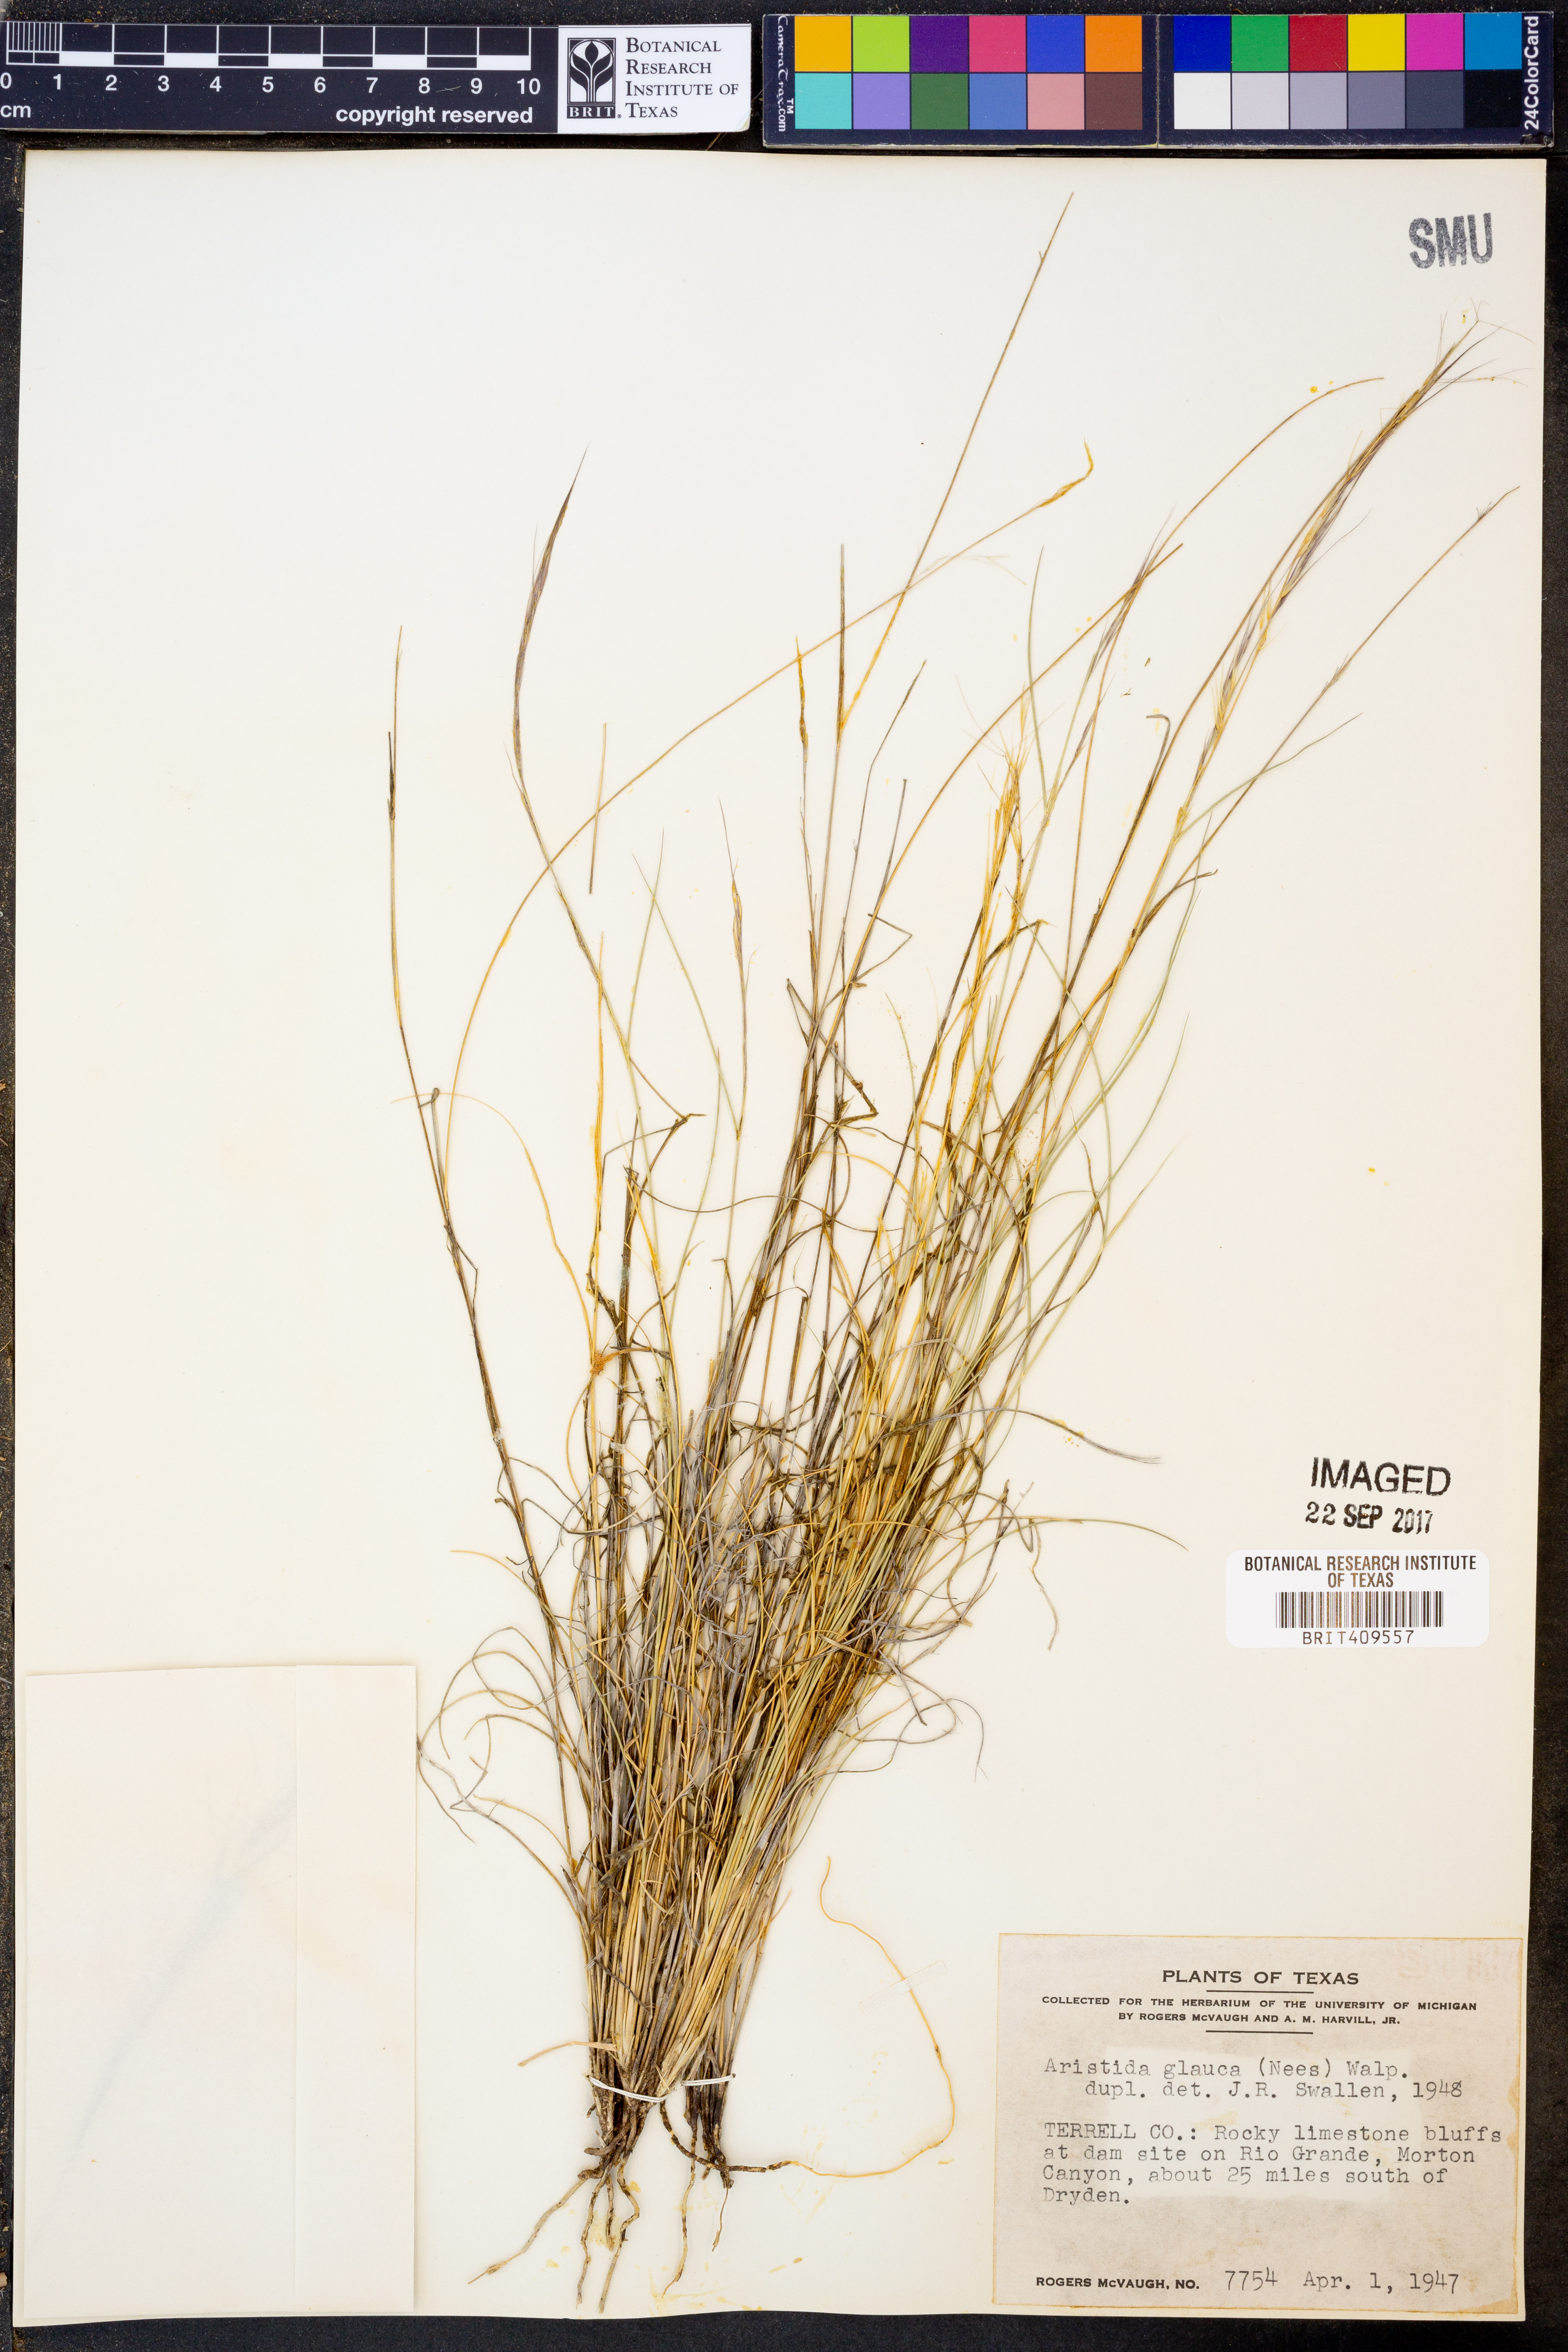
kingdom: Plantae
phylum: Tracheophyta
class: Liliopsida
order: Poales
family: Poaceae
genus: Aristida
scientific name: Aristida glauca
